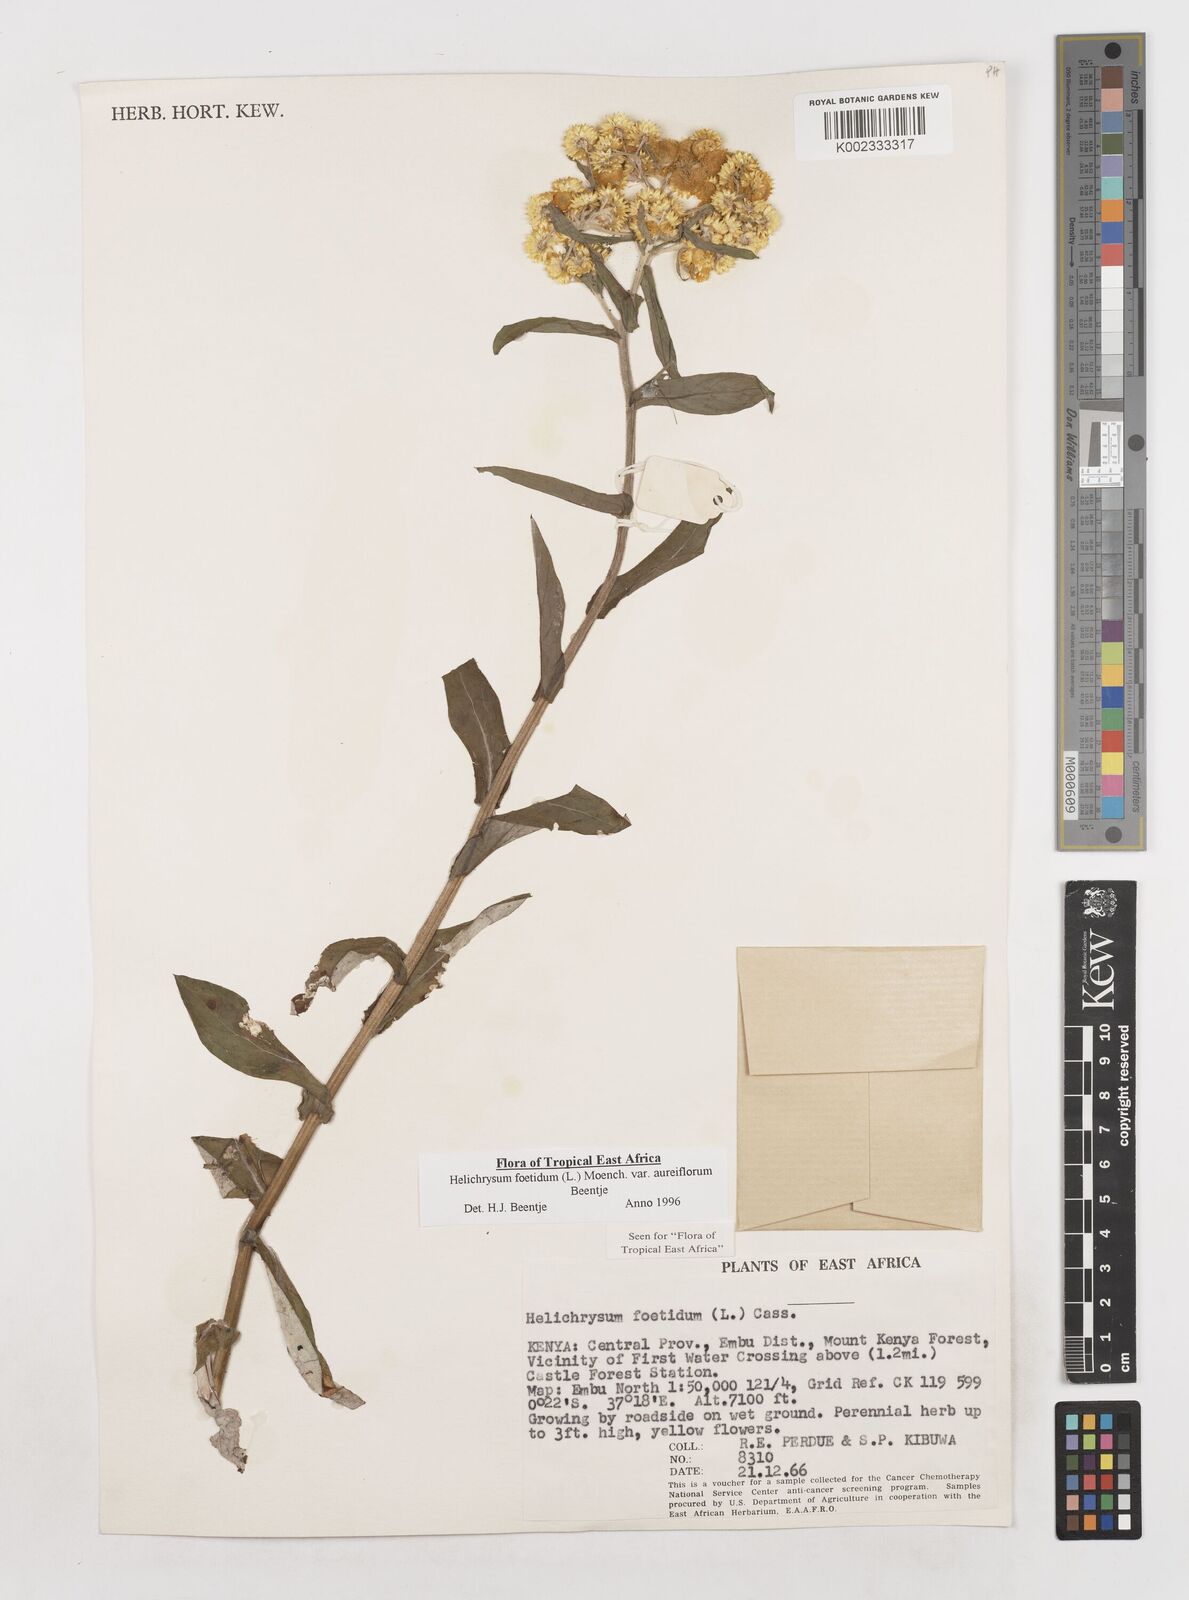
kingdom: Plantae
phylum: Tracheophyta
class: Magnoliopsida
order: Asterales
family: Asteraceae
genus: Helichrysum
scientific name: Helichrysum foetidum
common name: Stinking everlasting
